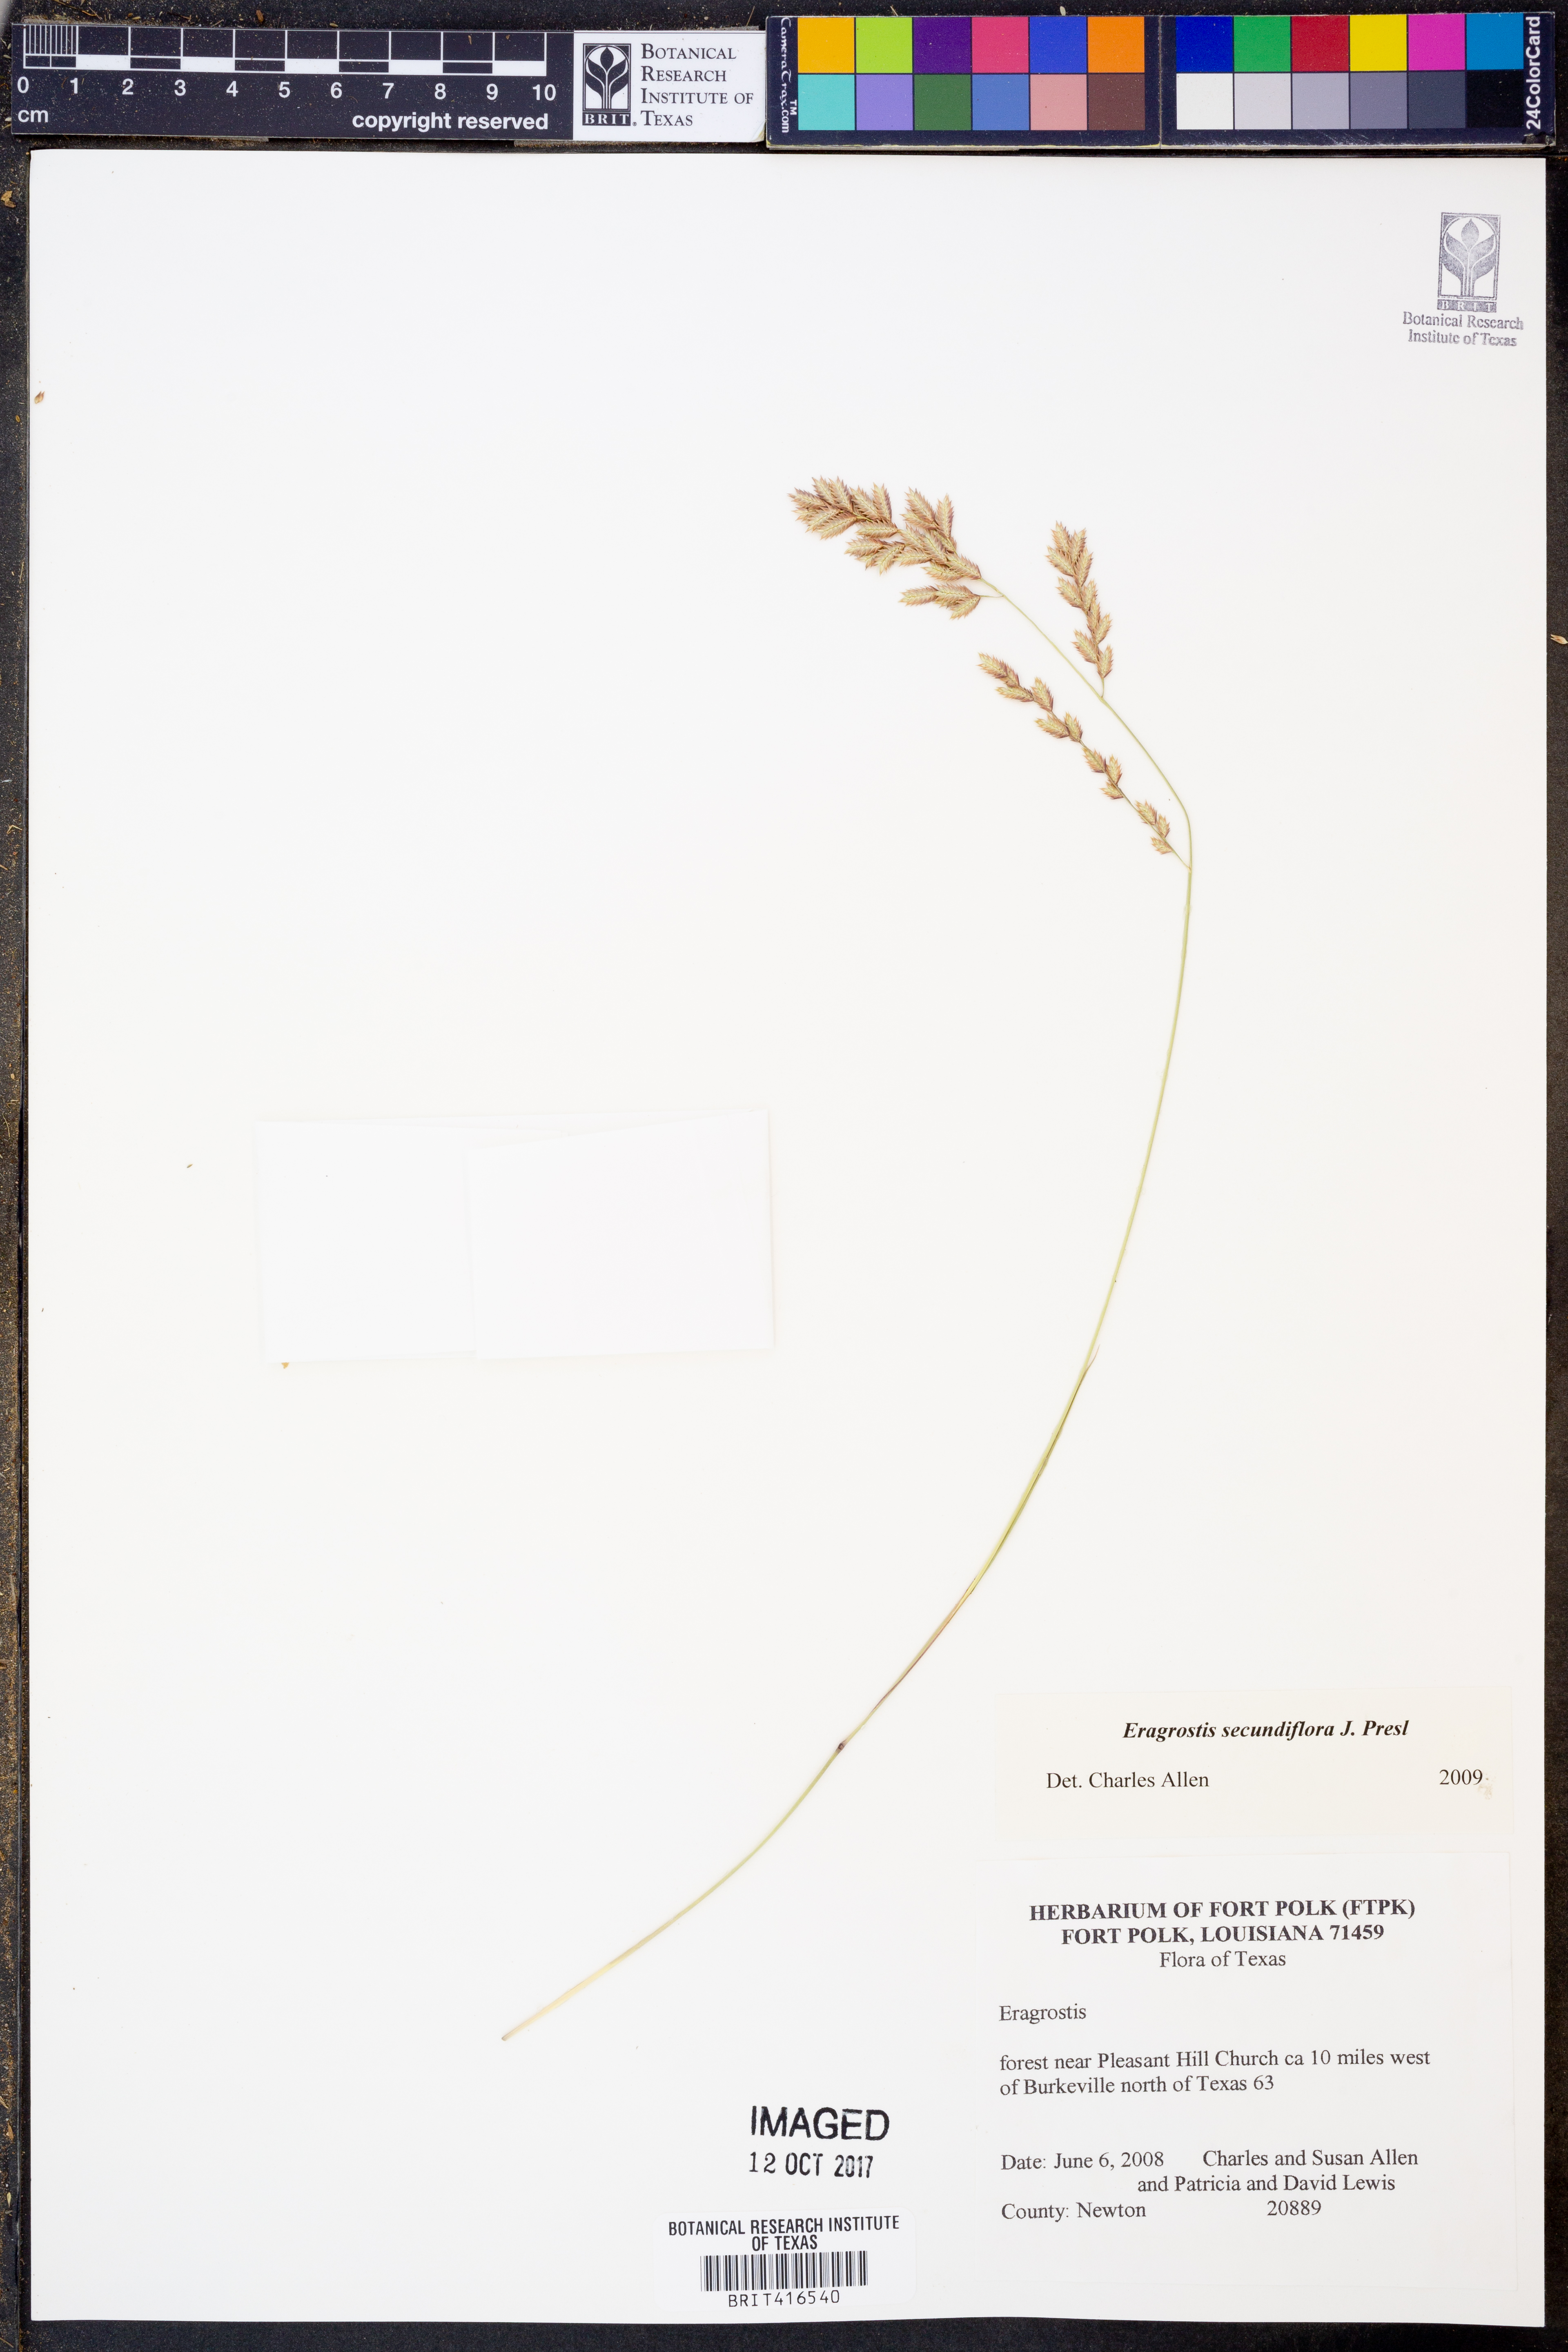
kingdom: Plantae
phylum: Tracheophyta
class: Liliopsida
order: Poales
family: Poaceae
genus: Eragrostis
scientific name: Eragrostis secundiflora
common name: Red love grass
